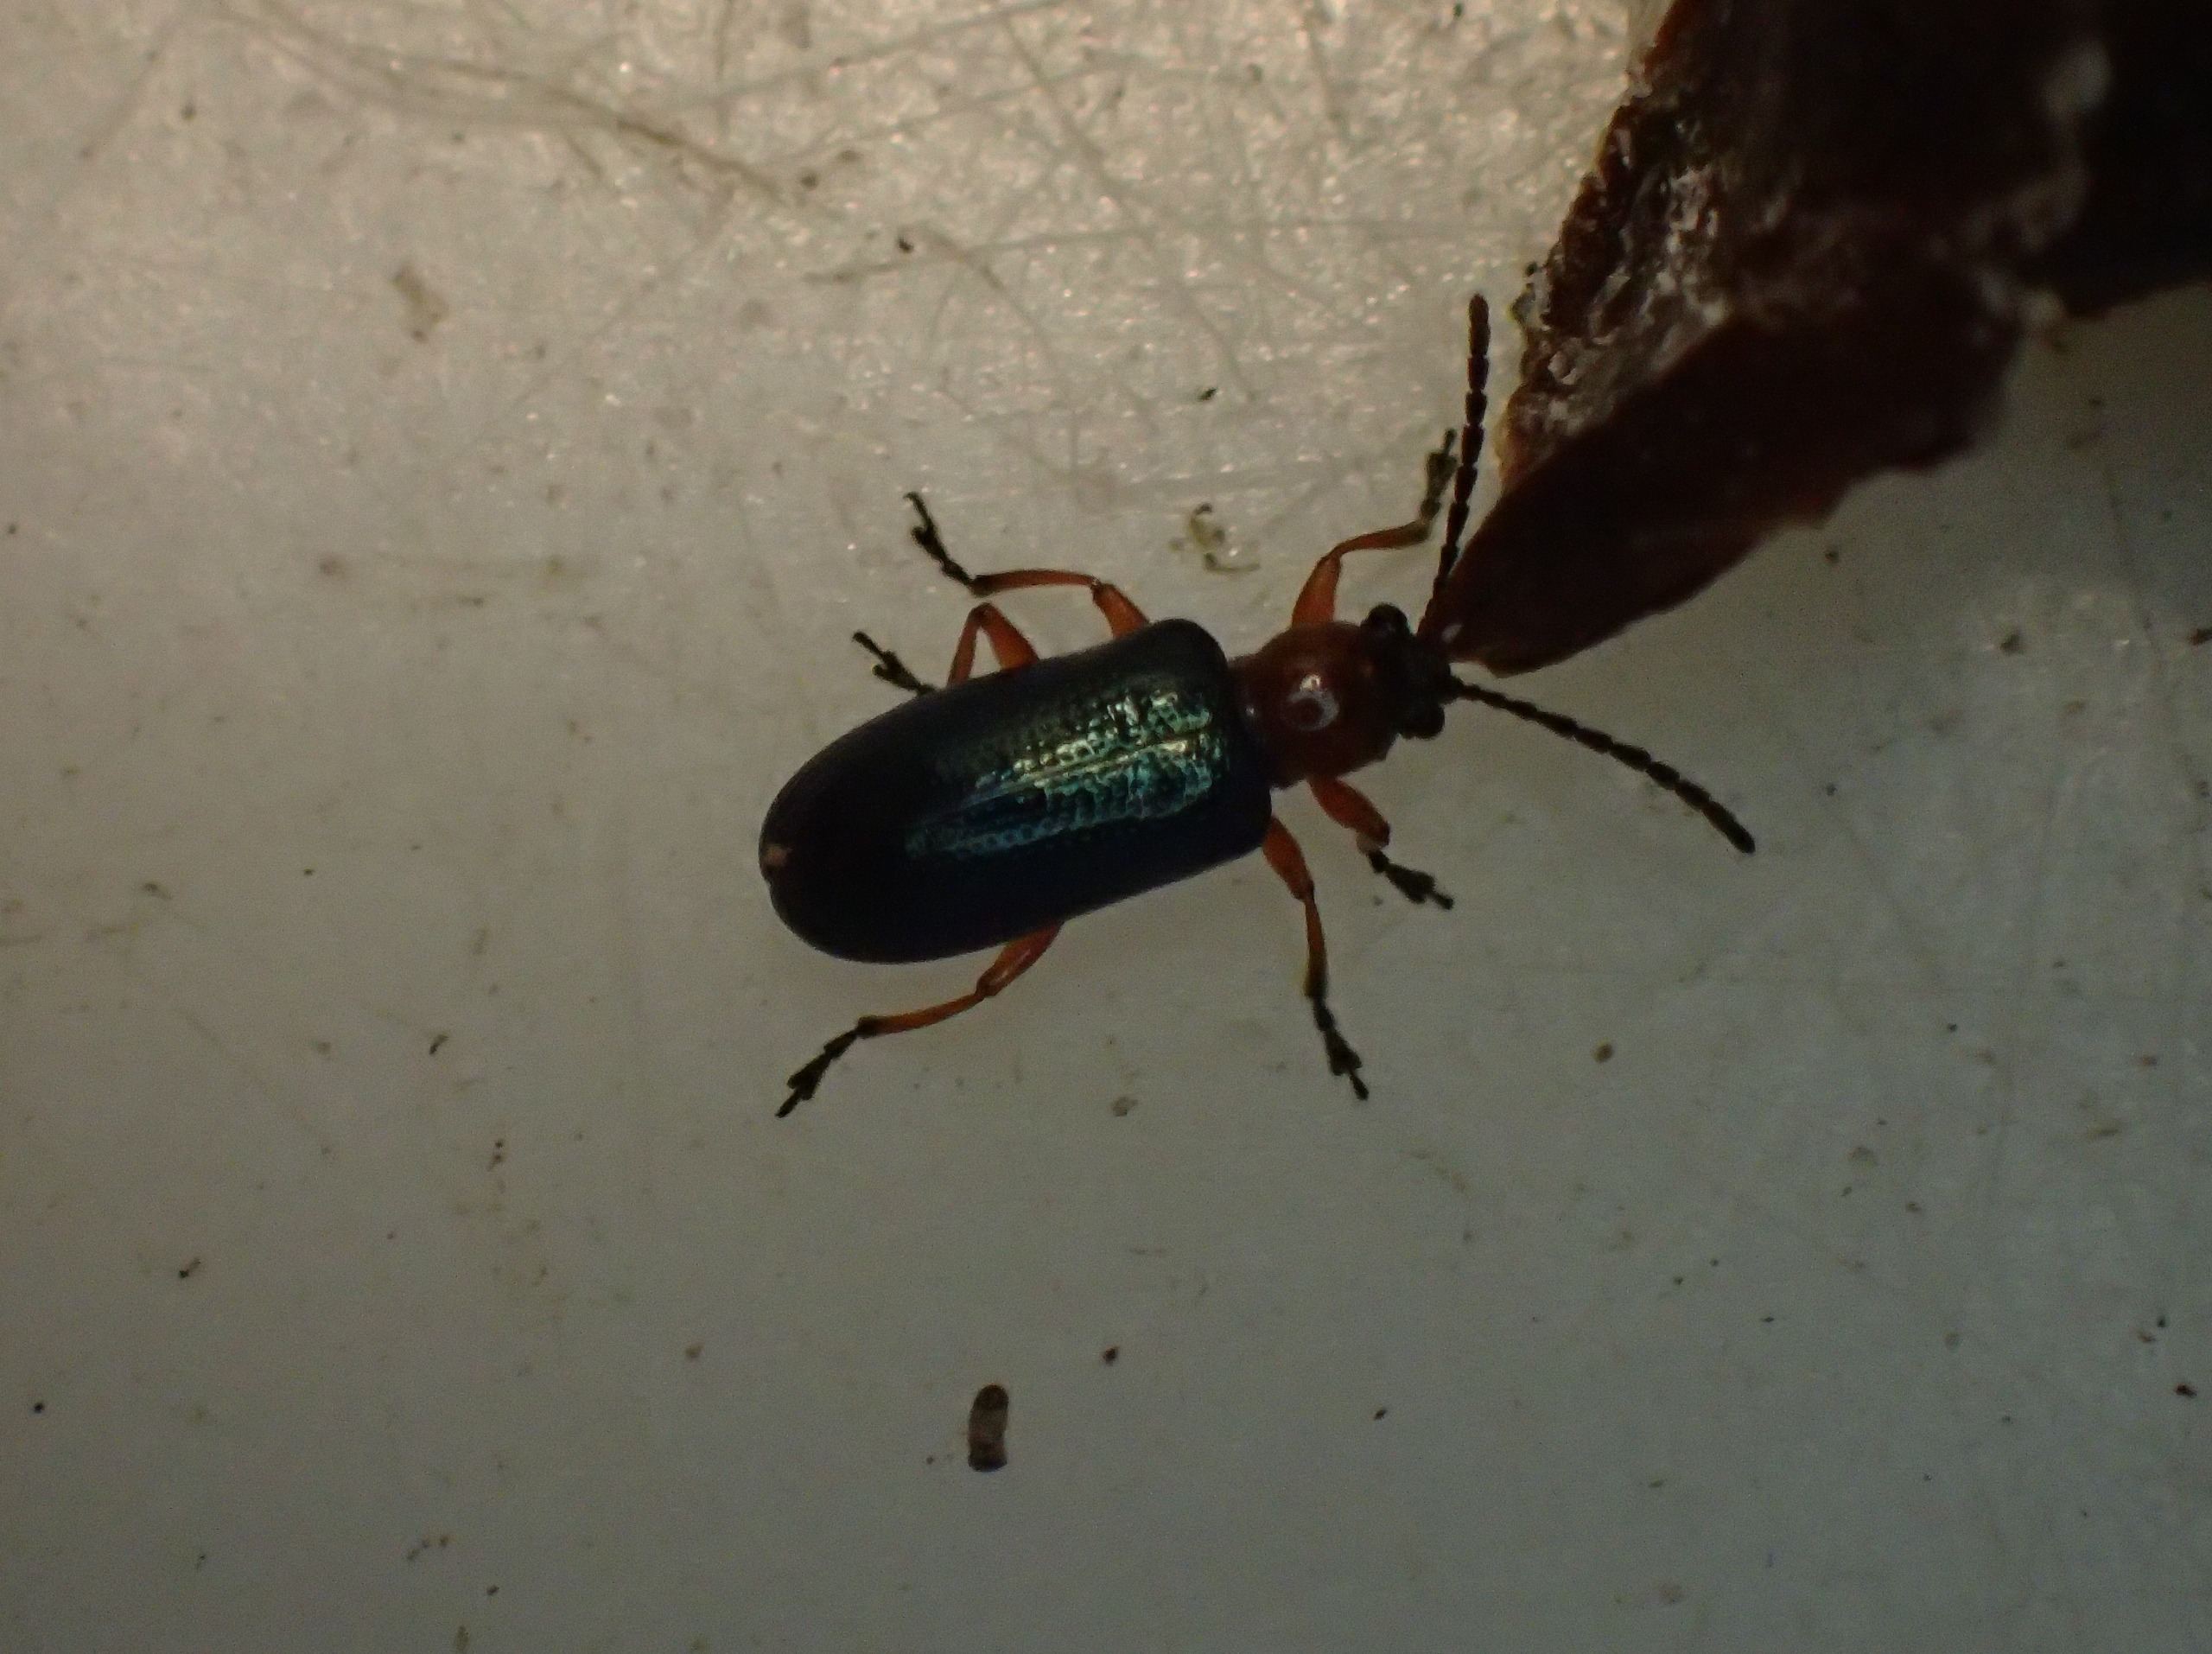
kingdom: Animalia
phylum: Arthropoda
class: Insecta
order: Coleoptera
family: Chrysomelidae
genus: Oulema
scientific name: Oulema
